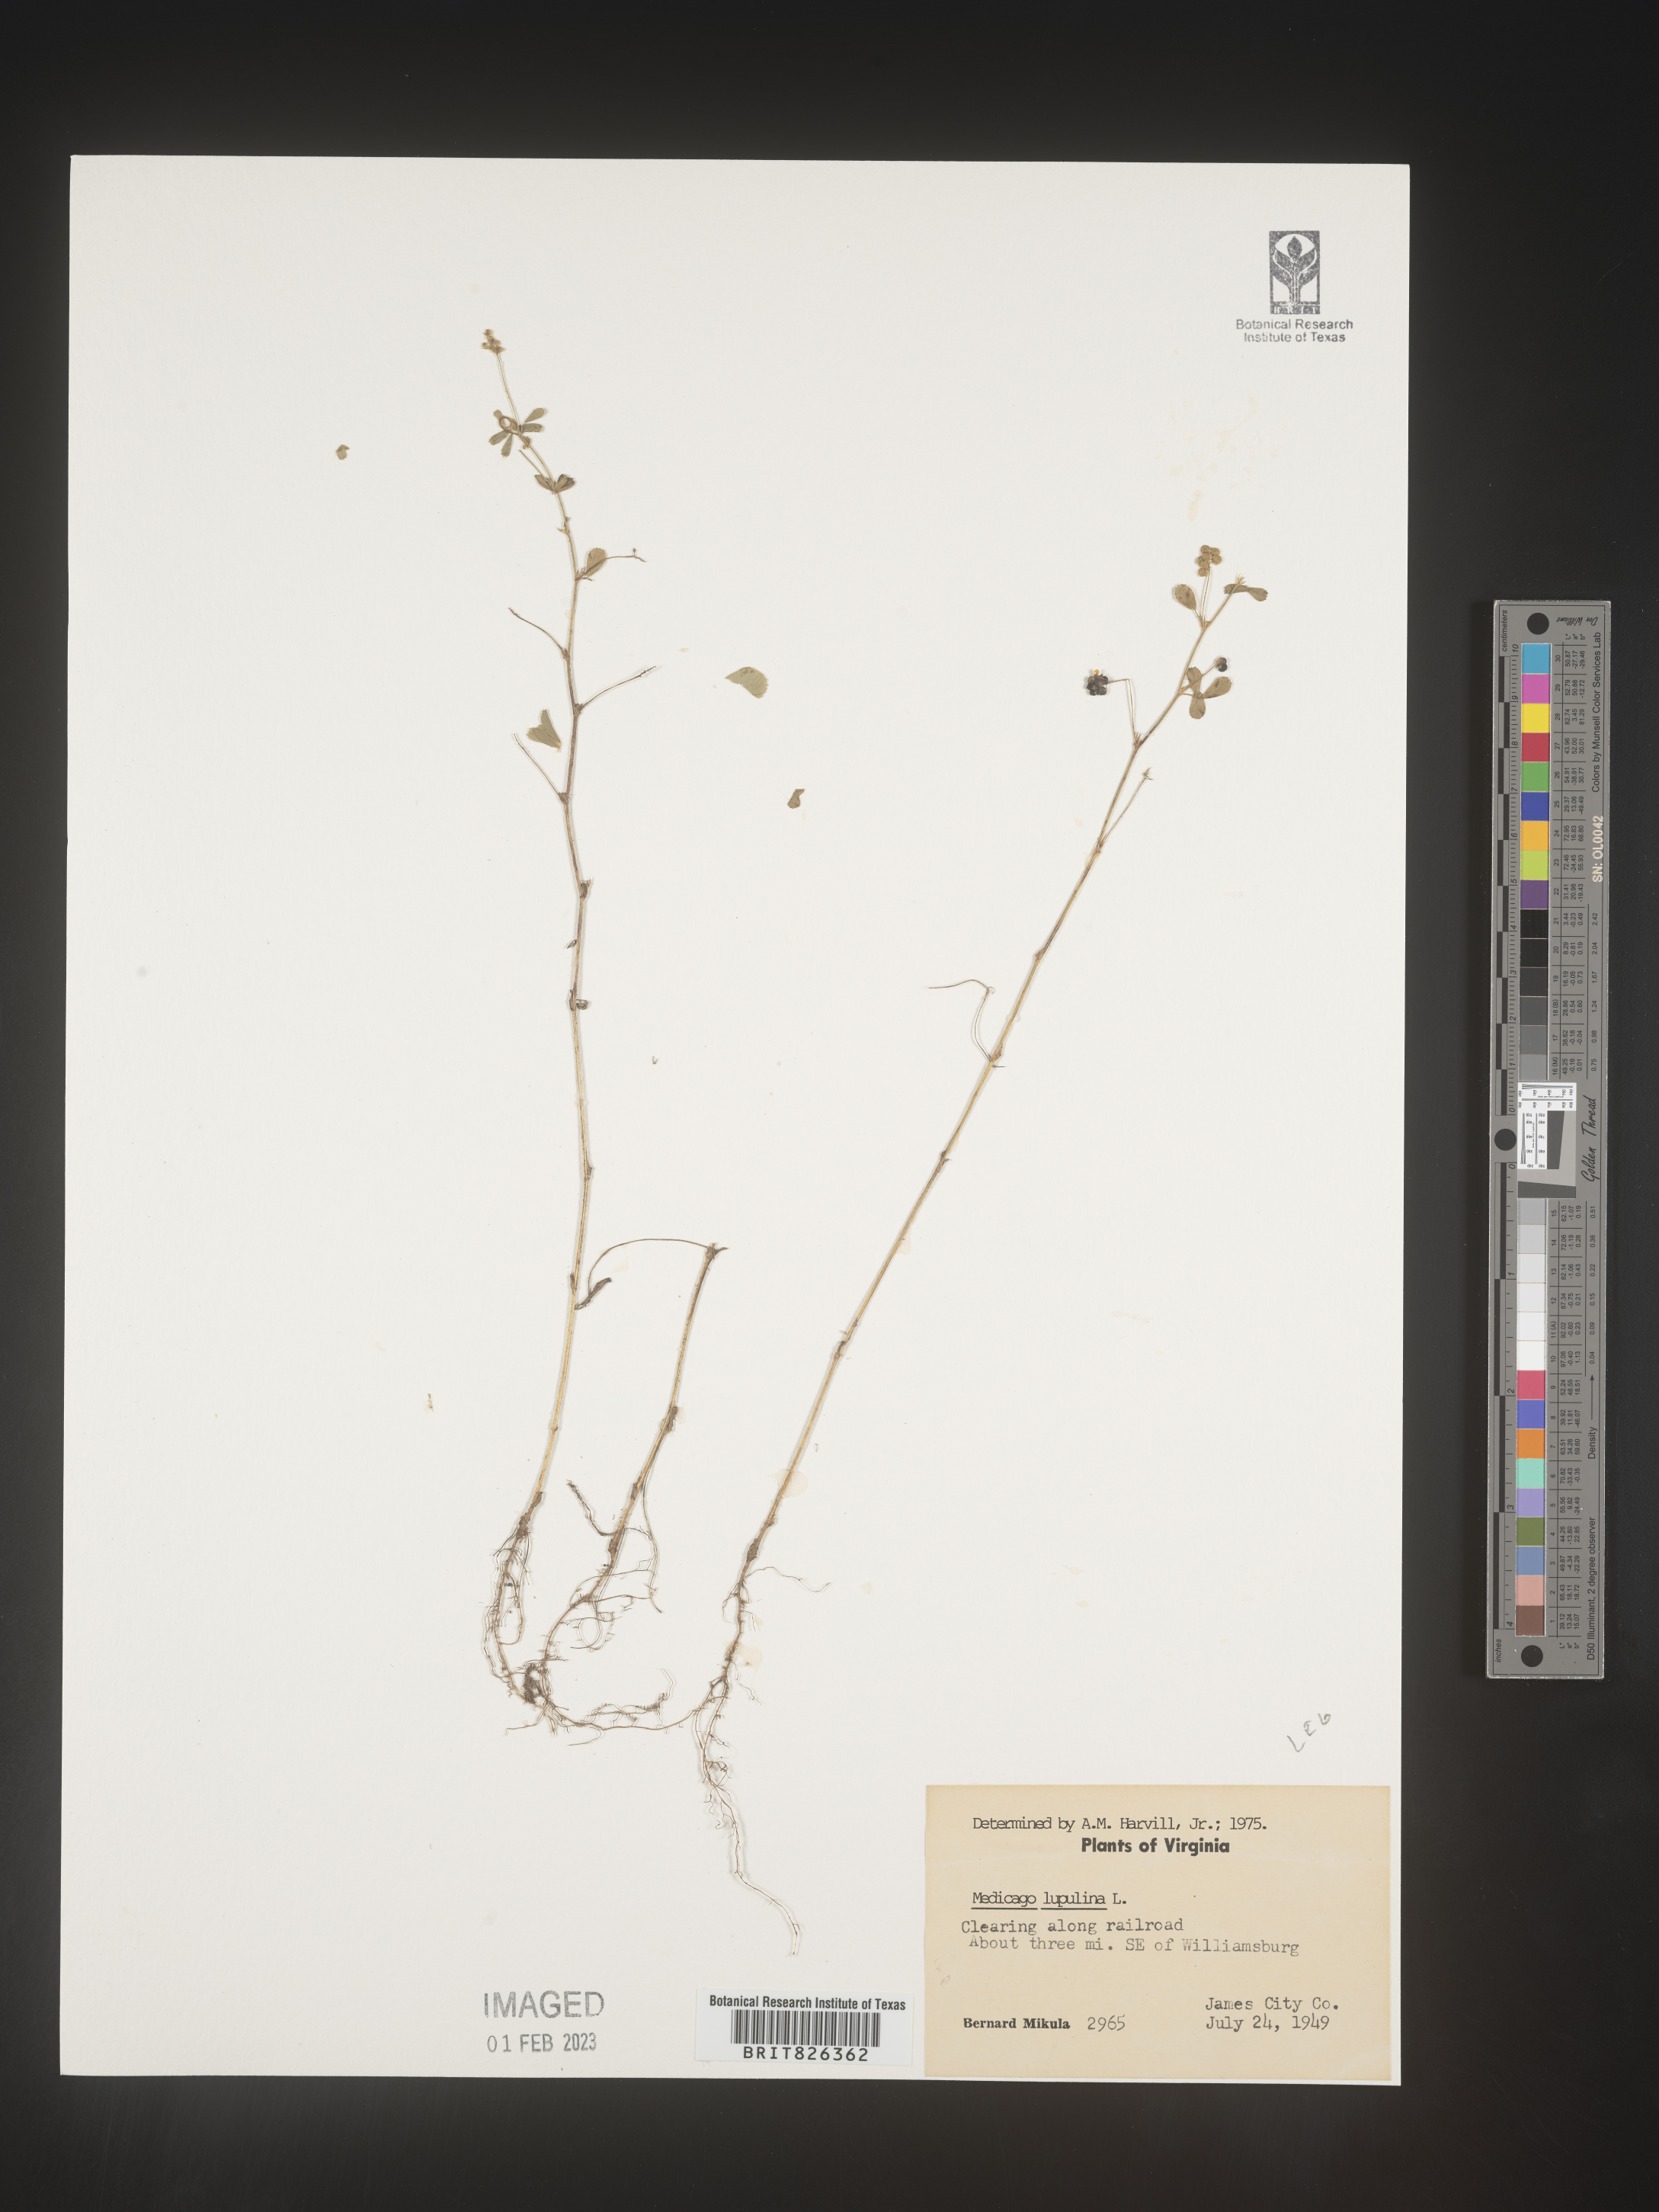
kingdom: Plantae
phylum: Tracheophyta
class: Magnoliopsida
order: Fabales
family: Fabaceae
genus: Medicago
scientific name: Medicago lupulina
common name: Black medick
